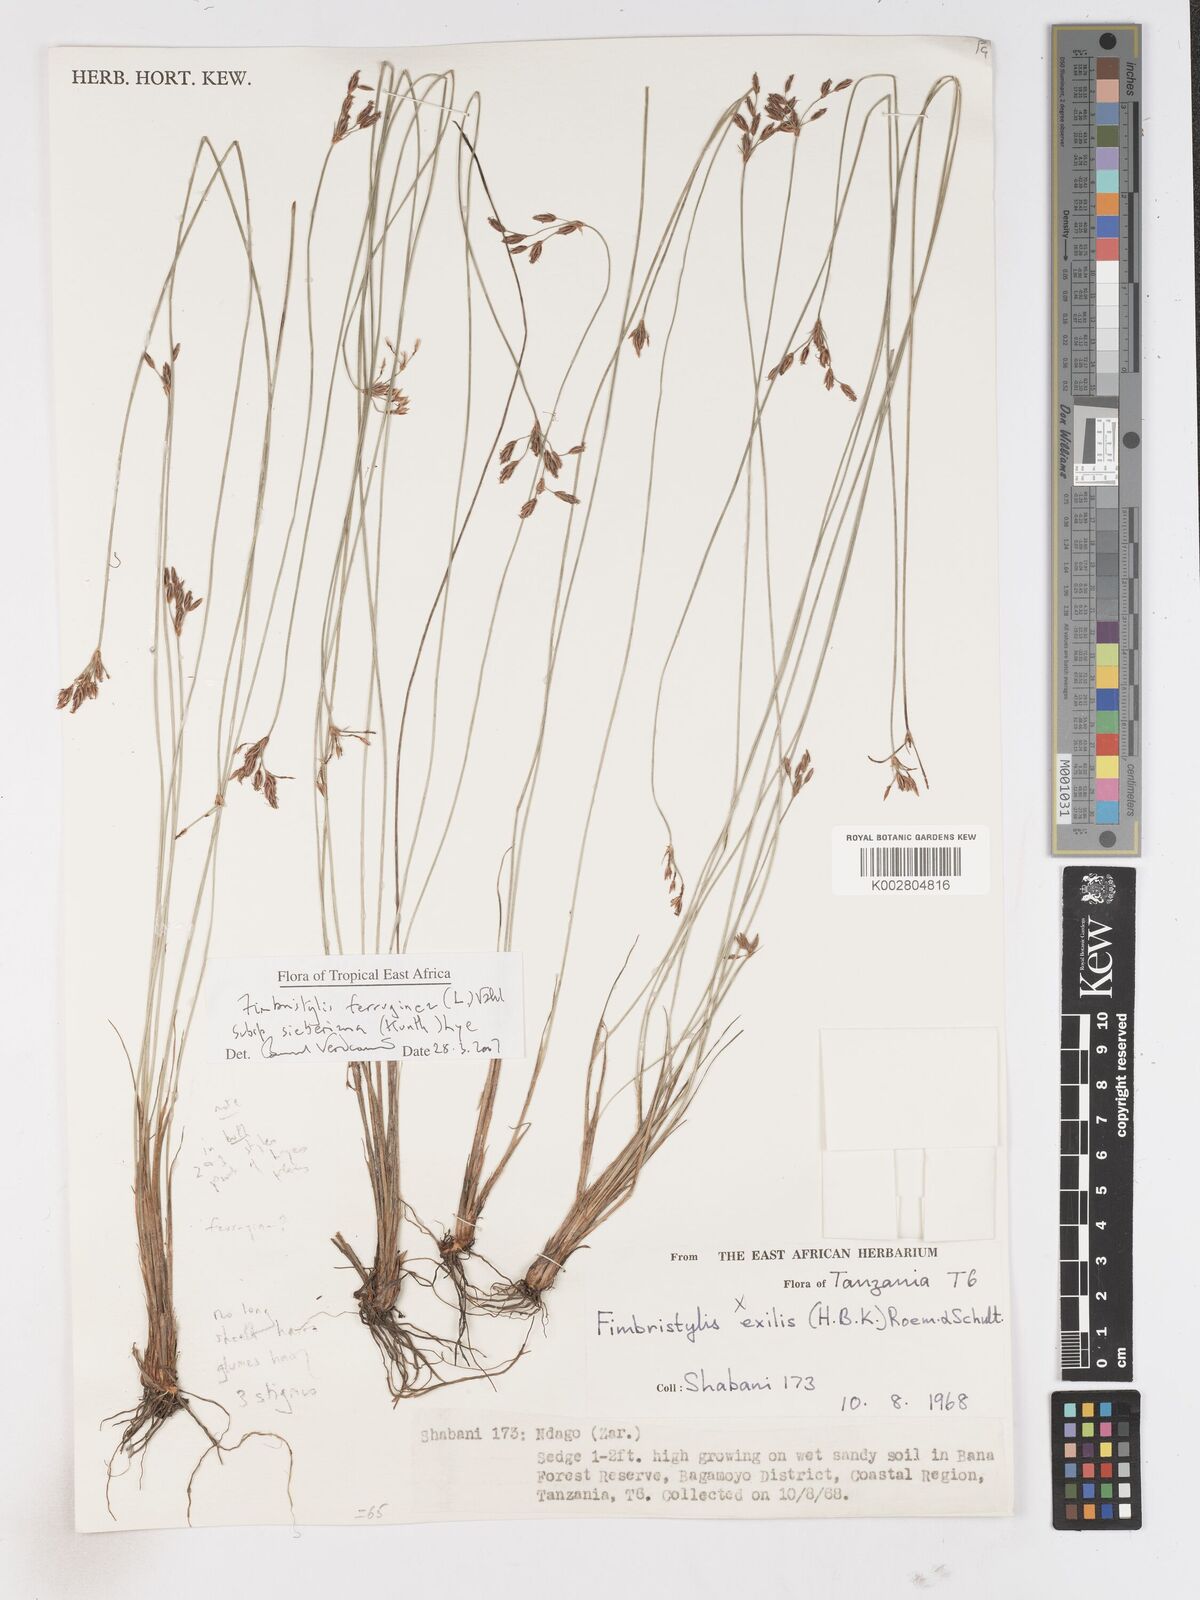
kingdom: Plantae
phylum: Tracheophyta
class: Liliopsida
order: Poales
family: Cyperaceae
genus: Fimbristylis
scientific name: Fimbristylis ferruginea
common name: West indian fimbry
